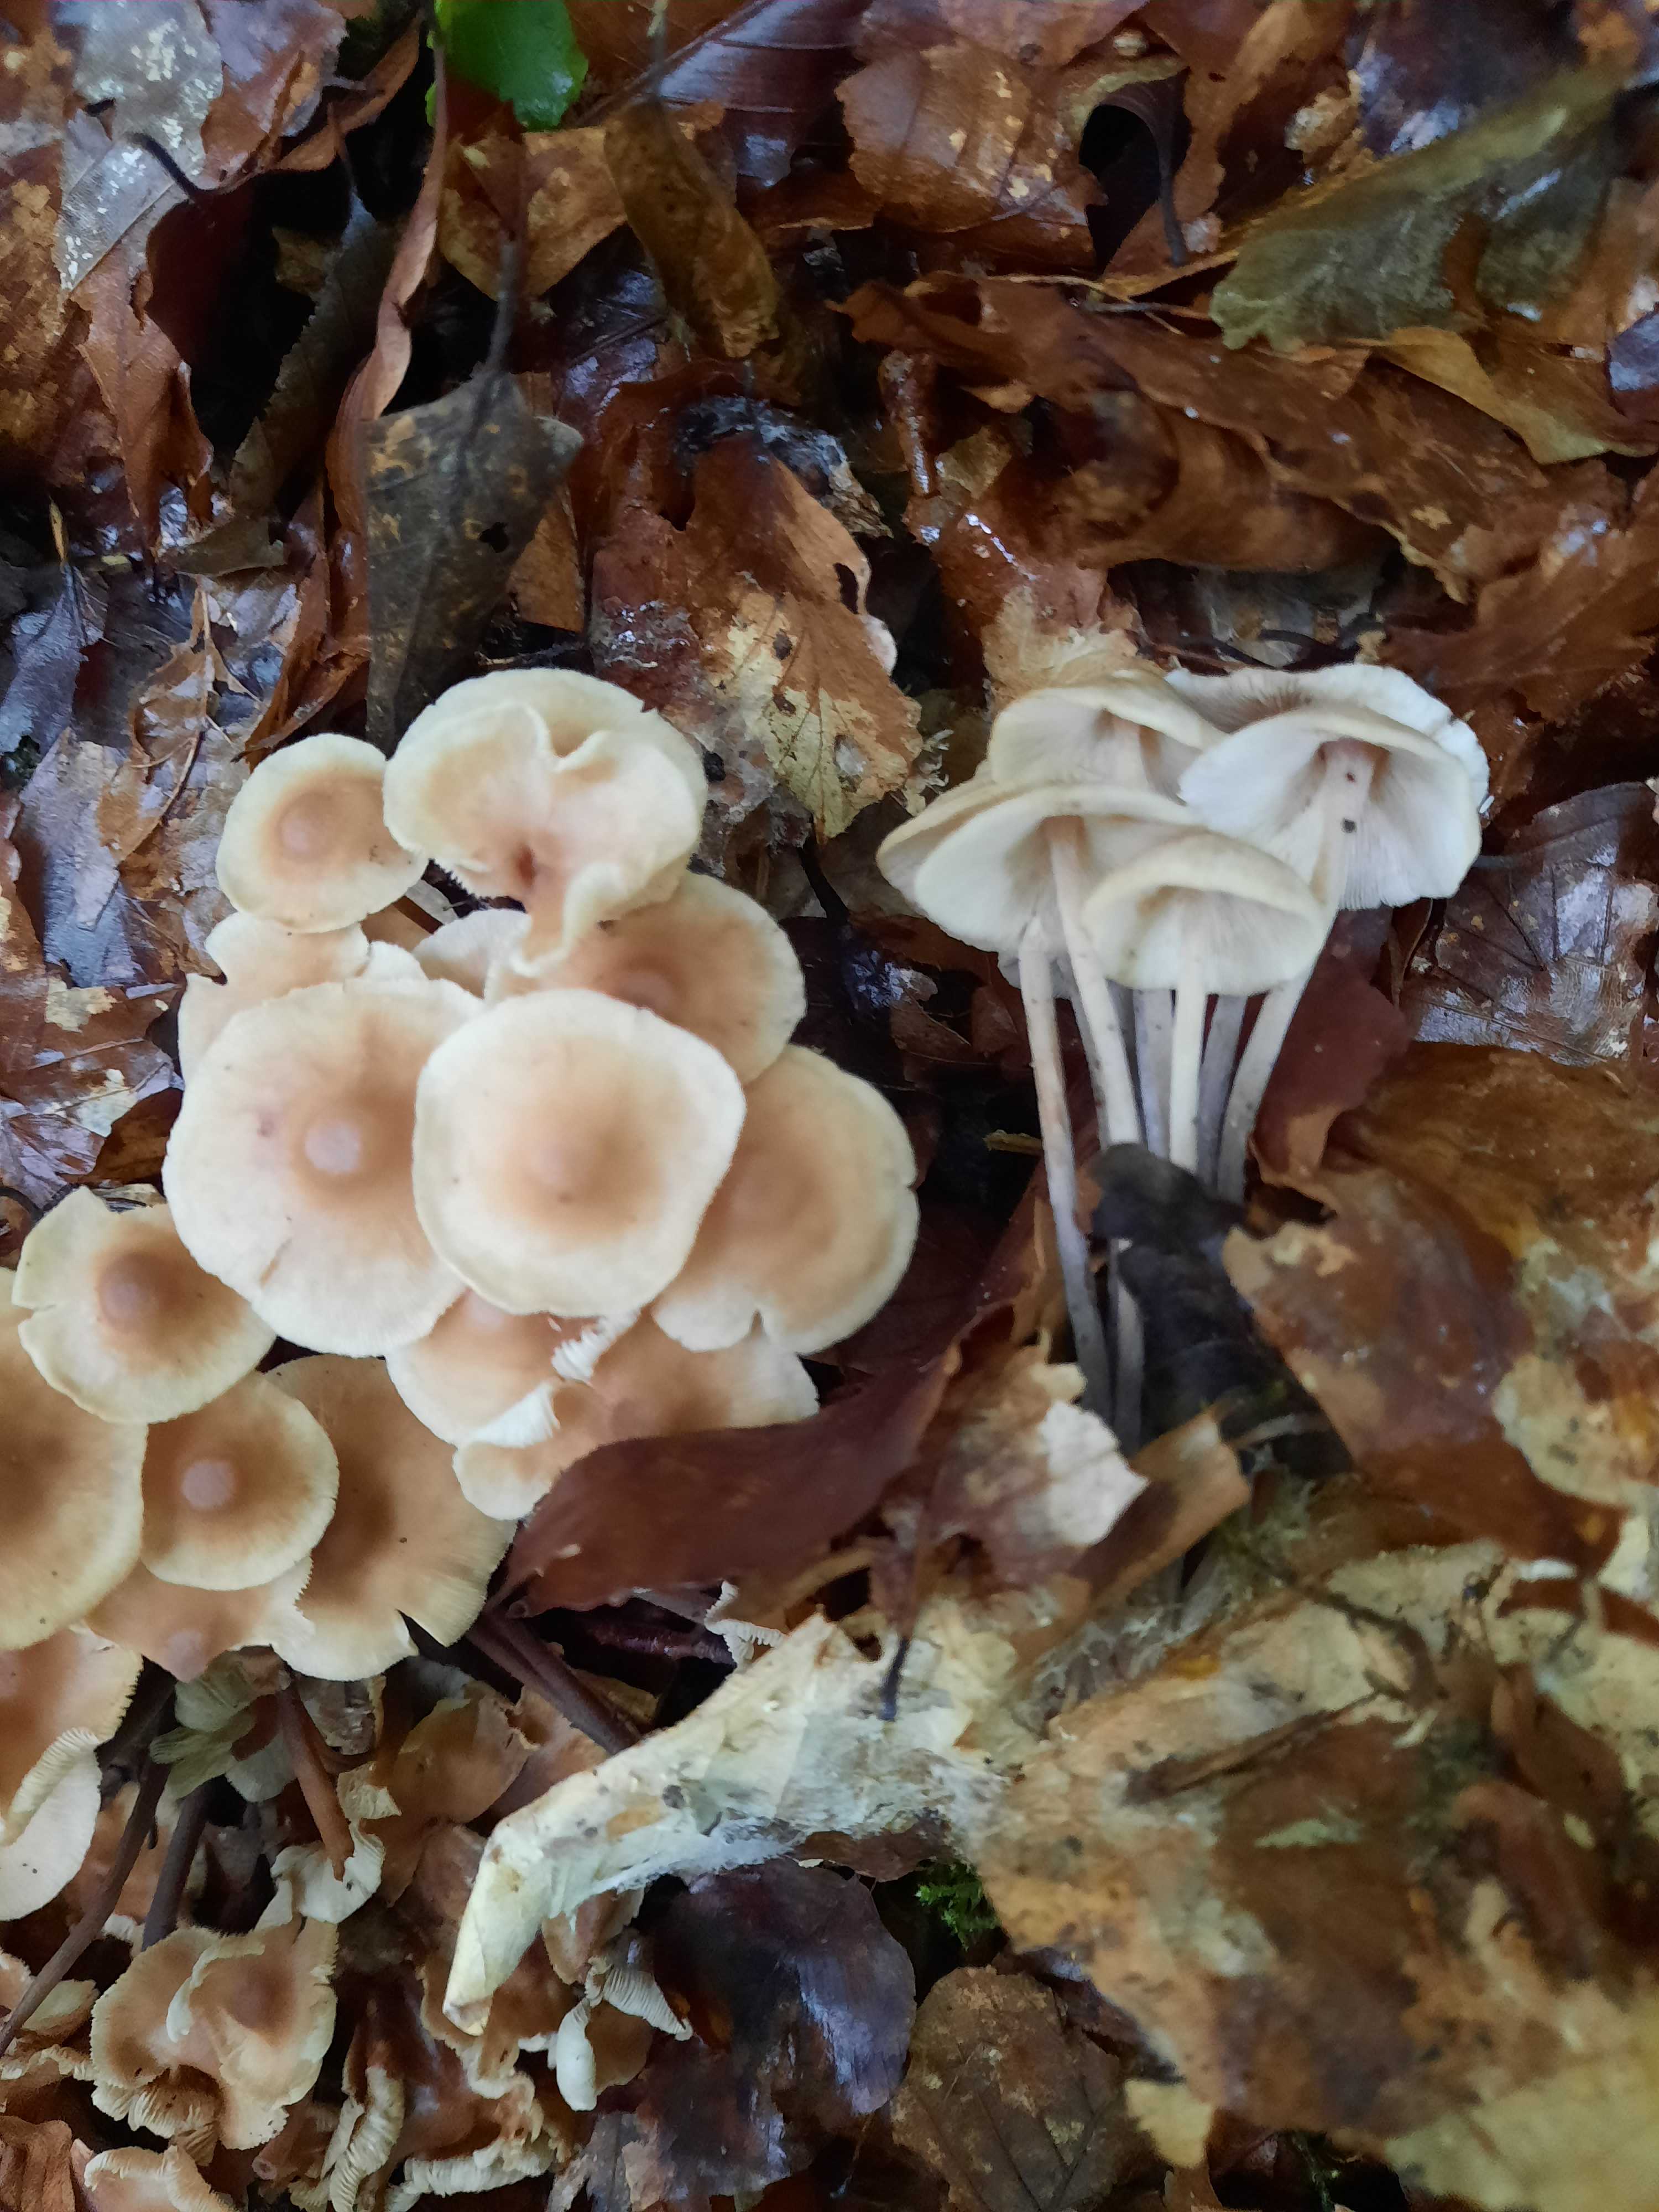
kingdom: Fungi
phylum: Basidiomycota
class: Agaricomycetes
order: Agaricales
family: Omphalotaceae
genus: Collybiopsis
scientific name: Collybiopsis confluens
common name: knippe-fladhat
